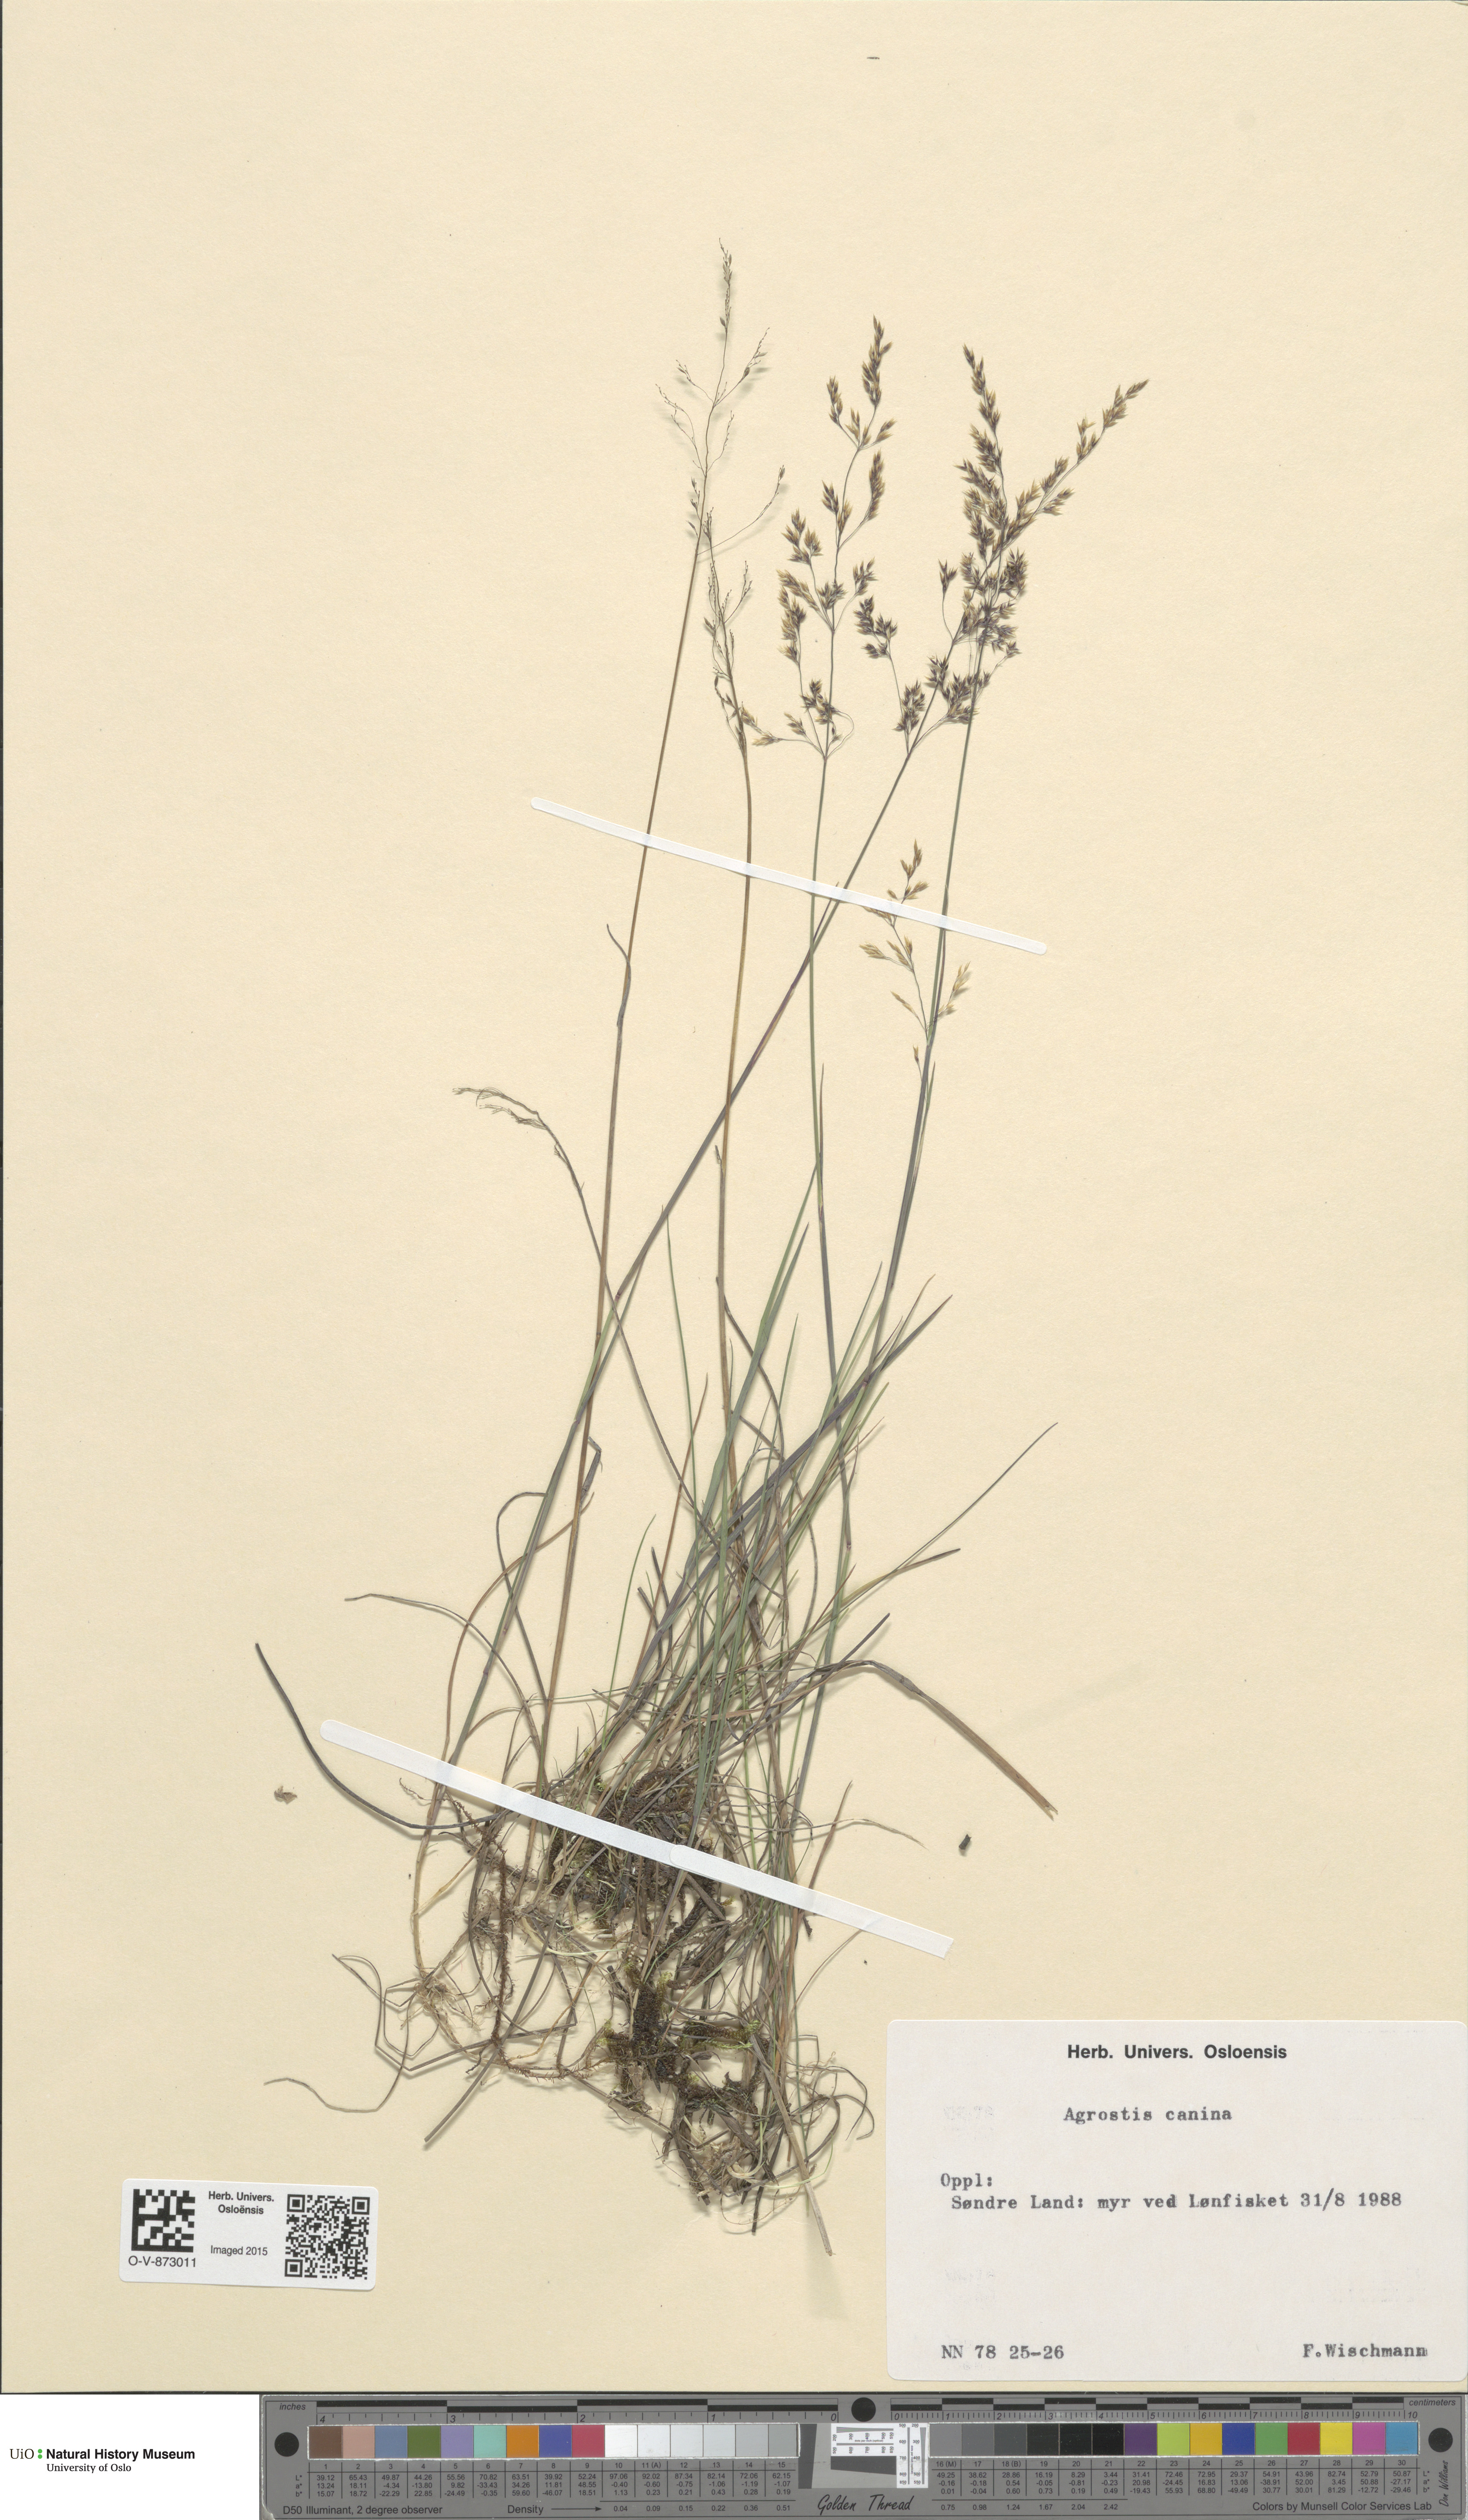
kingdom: Plantae
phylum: Tracheophyta
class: Liliopsida
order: Poales
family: Poaceae
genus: Agrostis
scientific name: Agrostis canina
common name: Velvet bent
